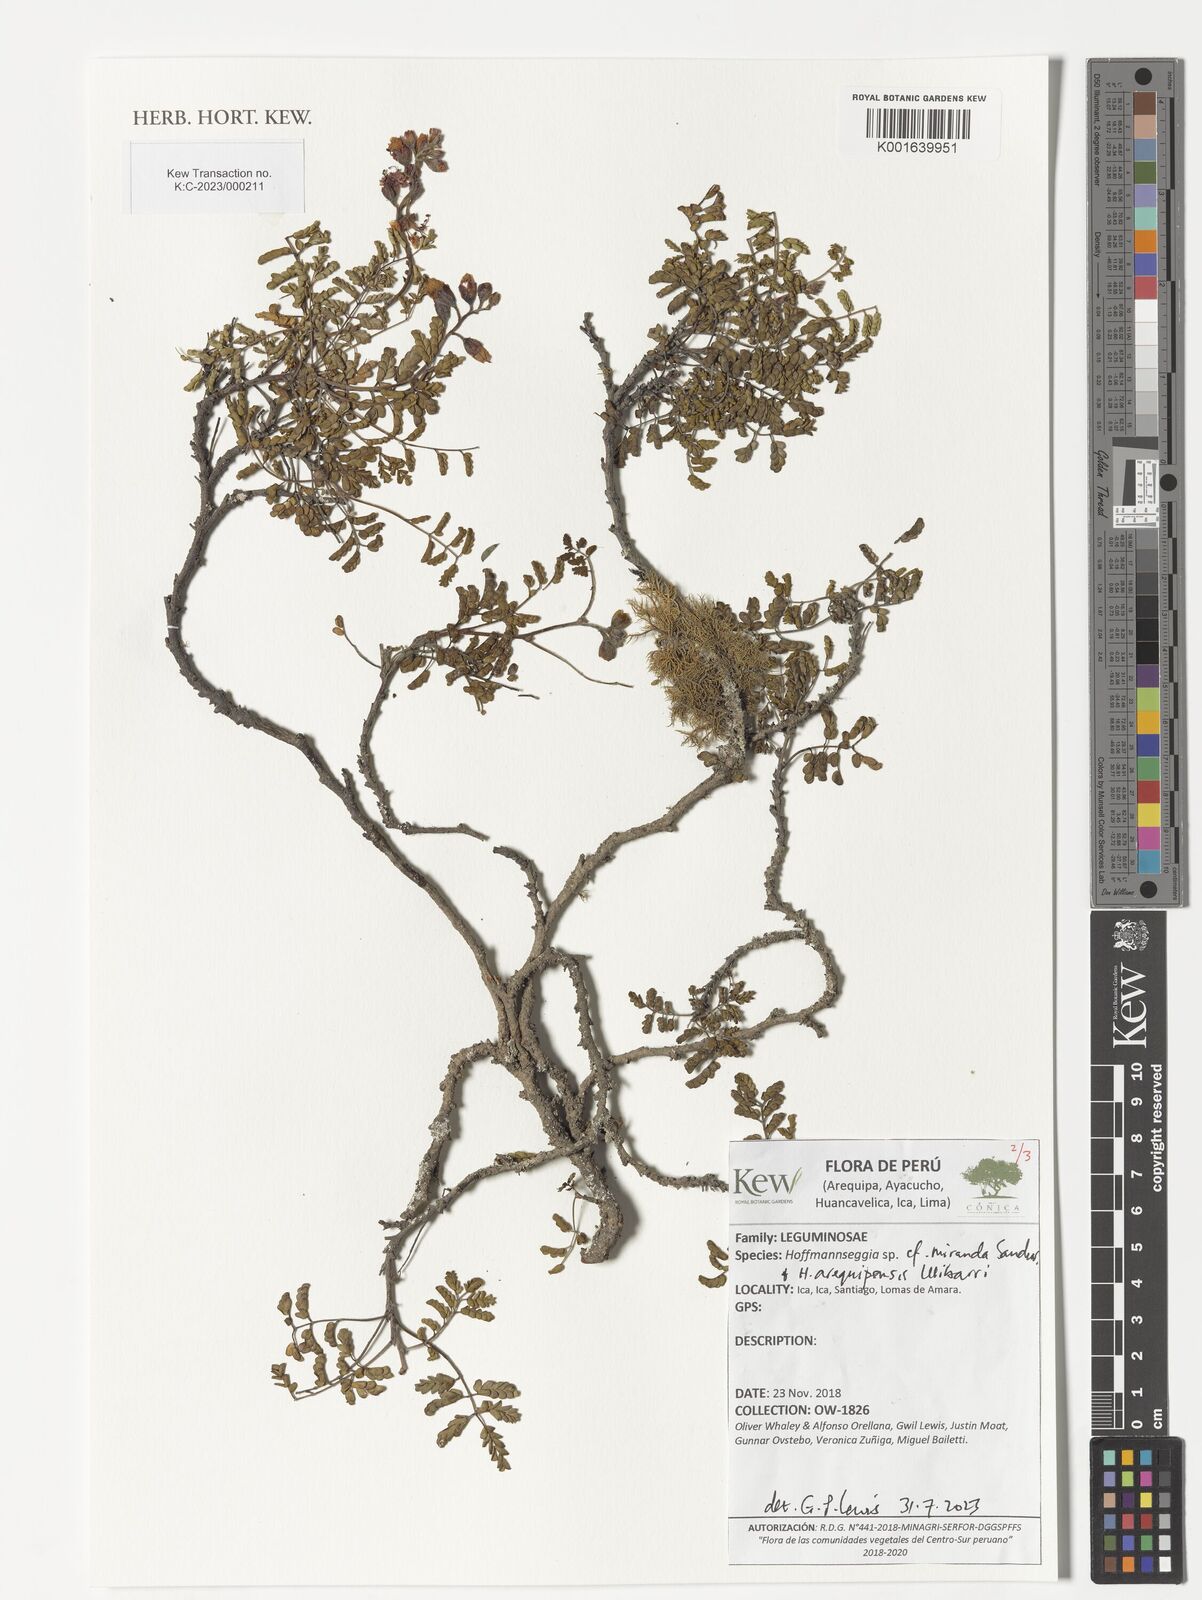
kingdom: Plantae
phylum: Tracheophyta
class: Magnoliopsida
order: Fabales
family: Fabaceae
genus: Hoffmannseggia
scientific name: Hoffmannseggia miranda
